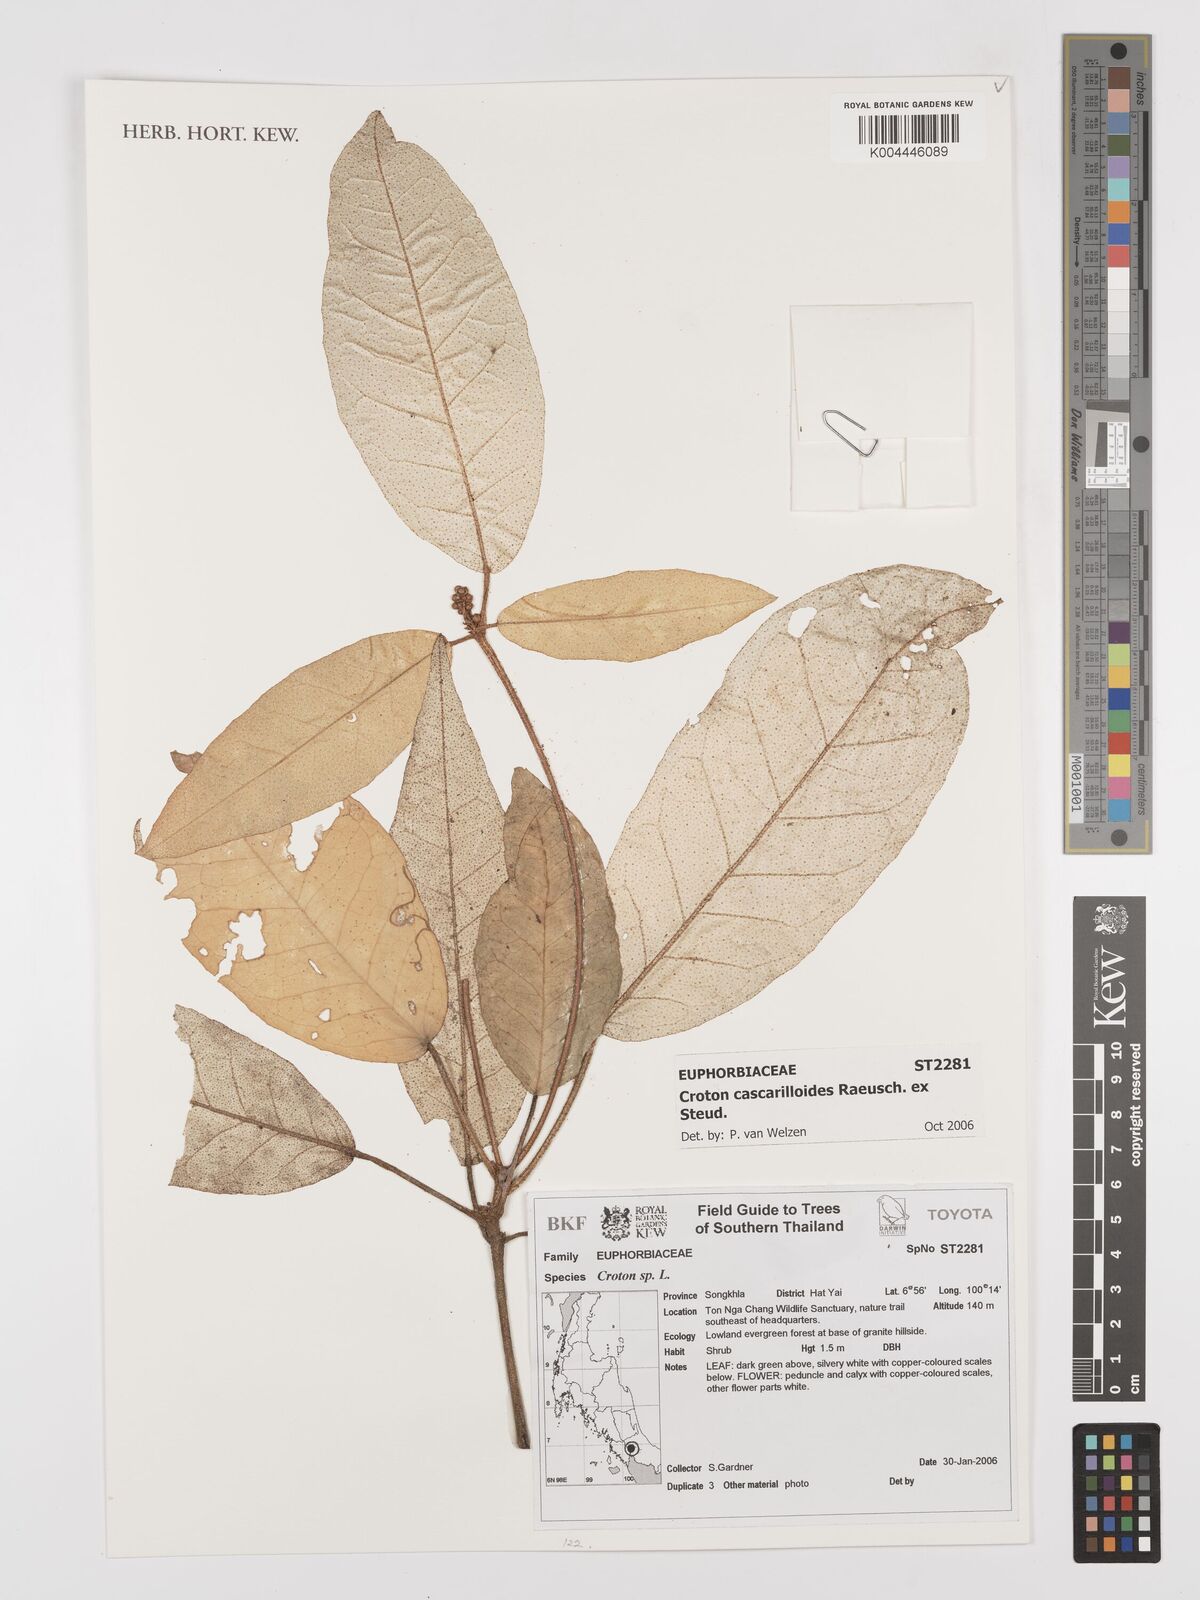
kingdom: Plantae
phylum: Tracheophyta
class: Magnoliopsida
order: Malpighiales
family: Euphorbiaceae
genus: Croton
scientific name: Croton cascarilloides
